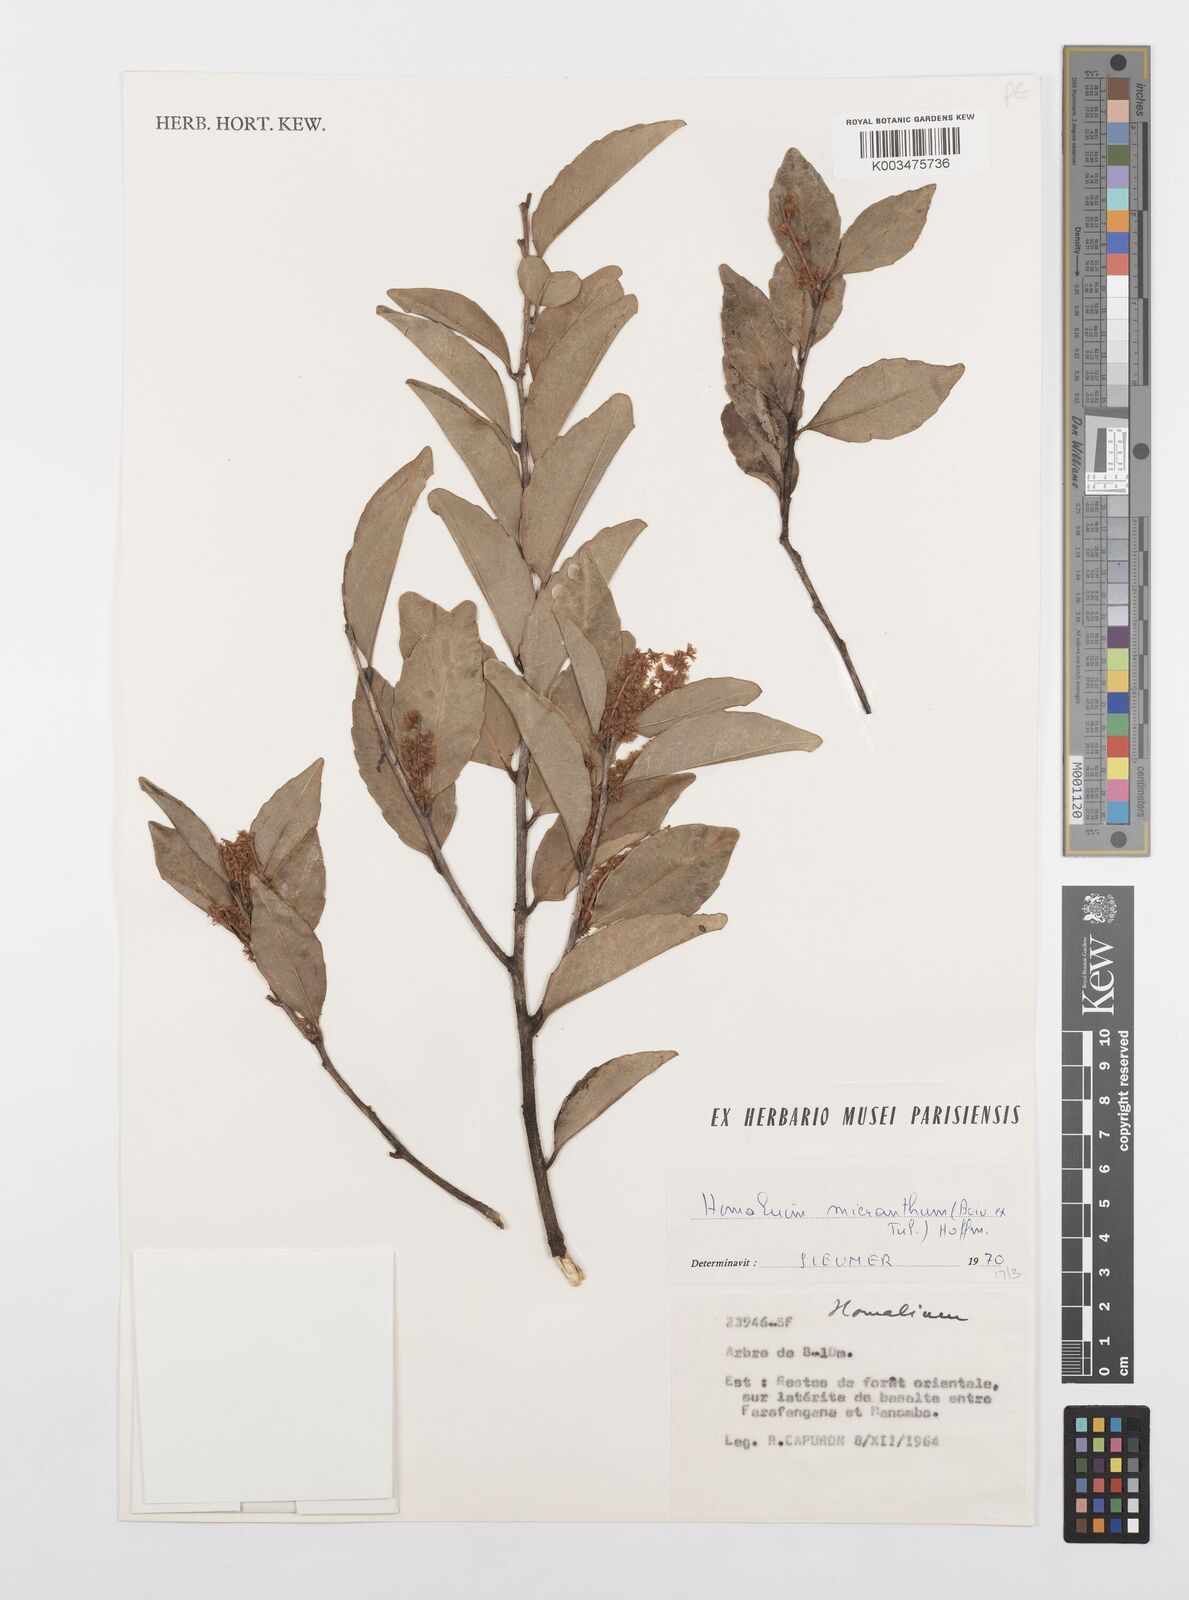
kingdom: Plantae
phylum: Tracheophyta
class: Magnoliopsida
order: Malpighiales
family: Salicaceae
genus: Homalium
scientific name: Homalium micranthum
